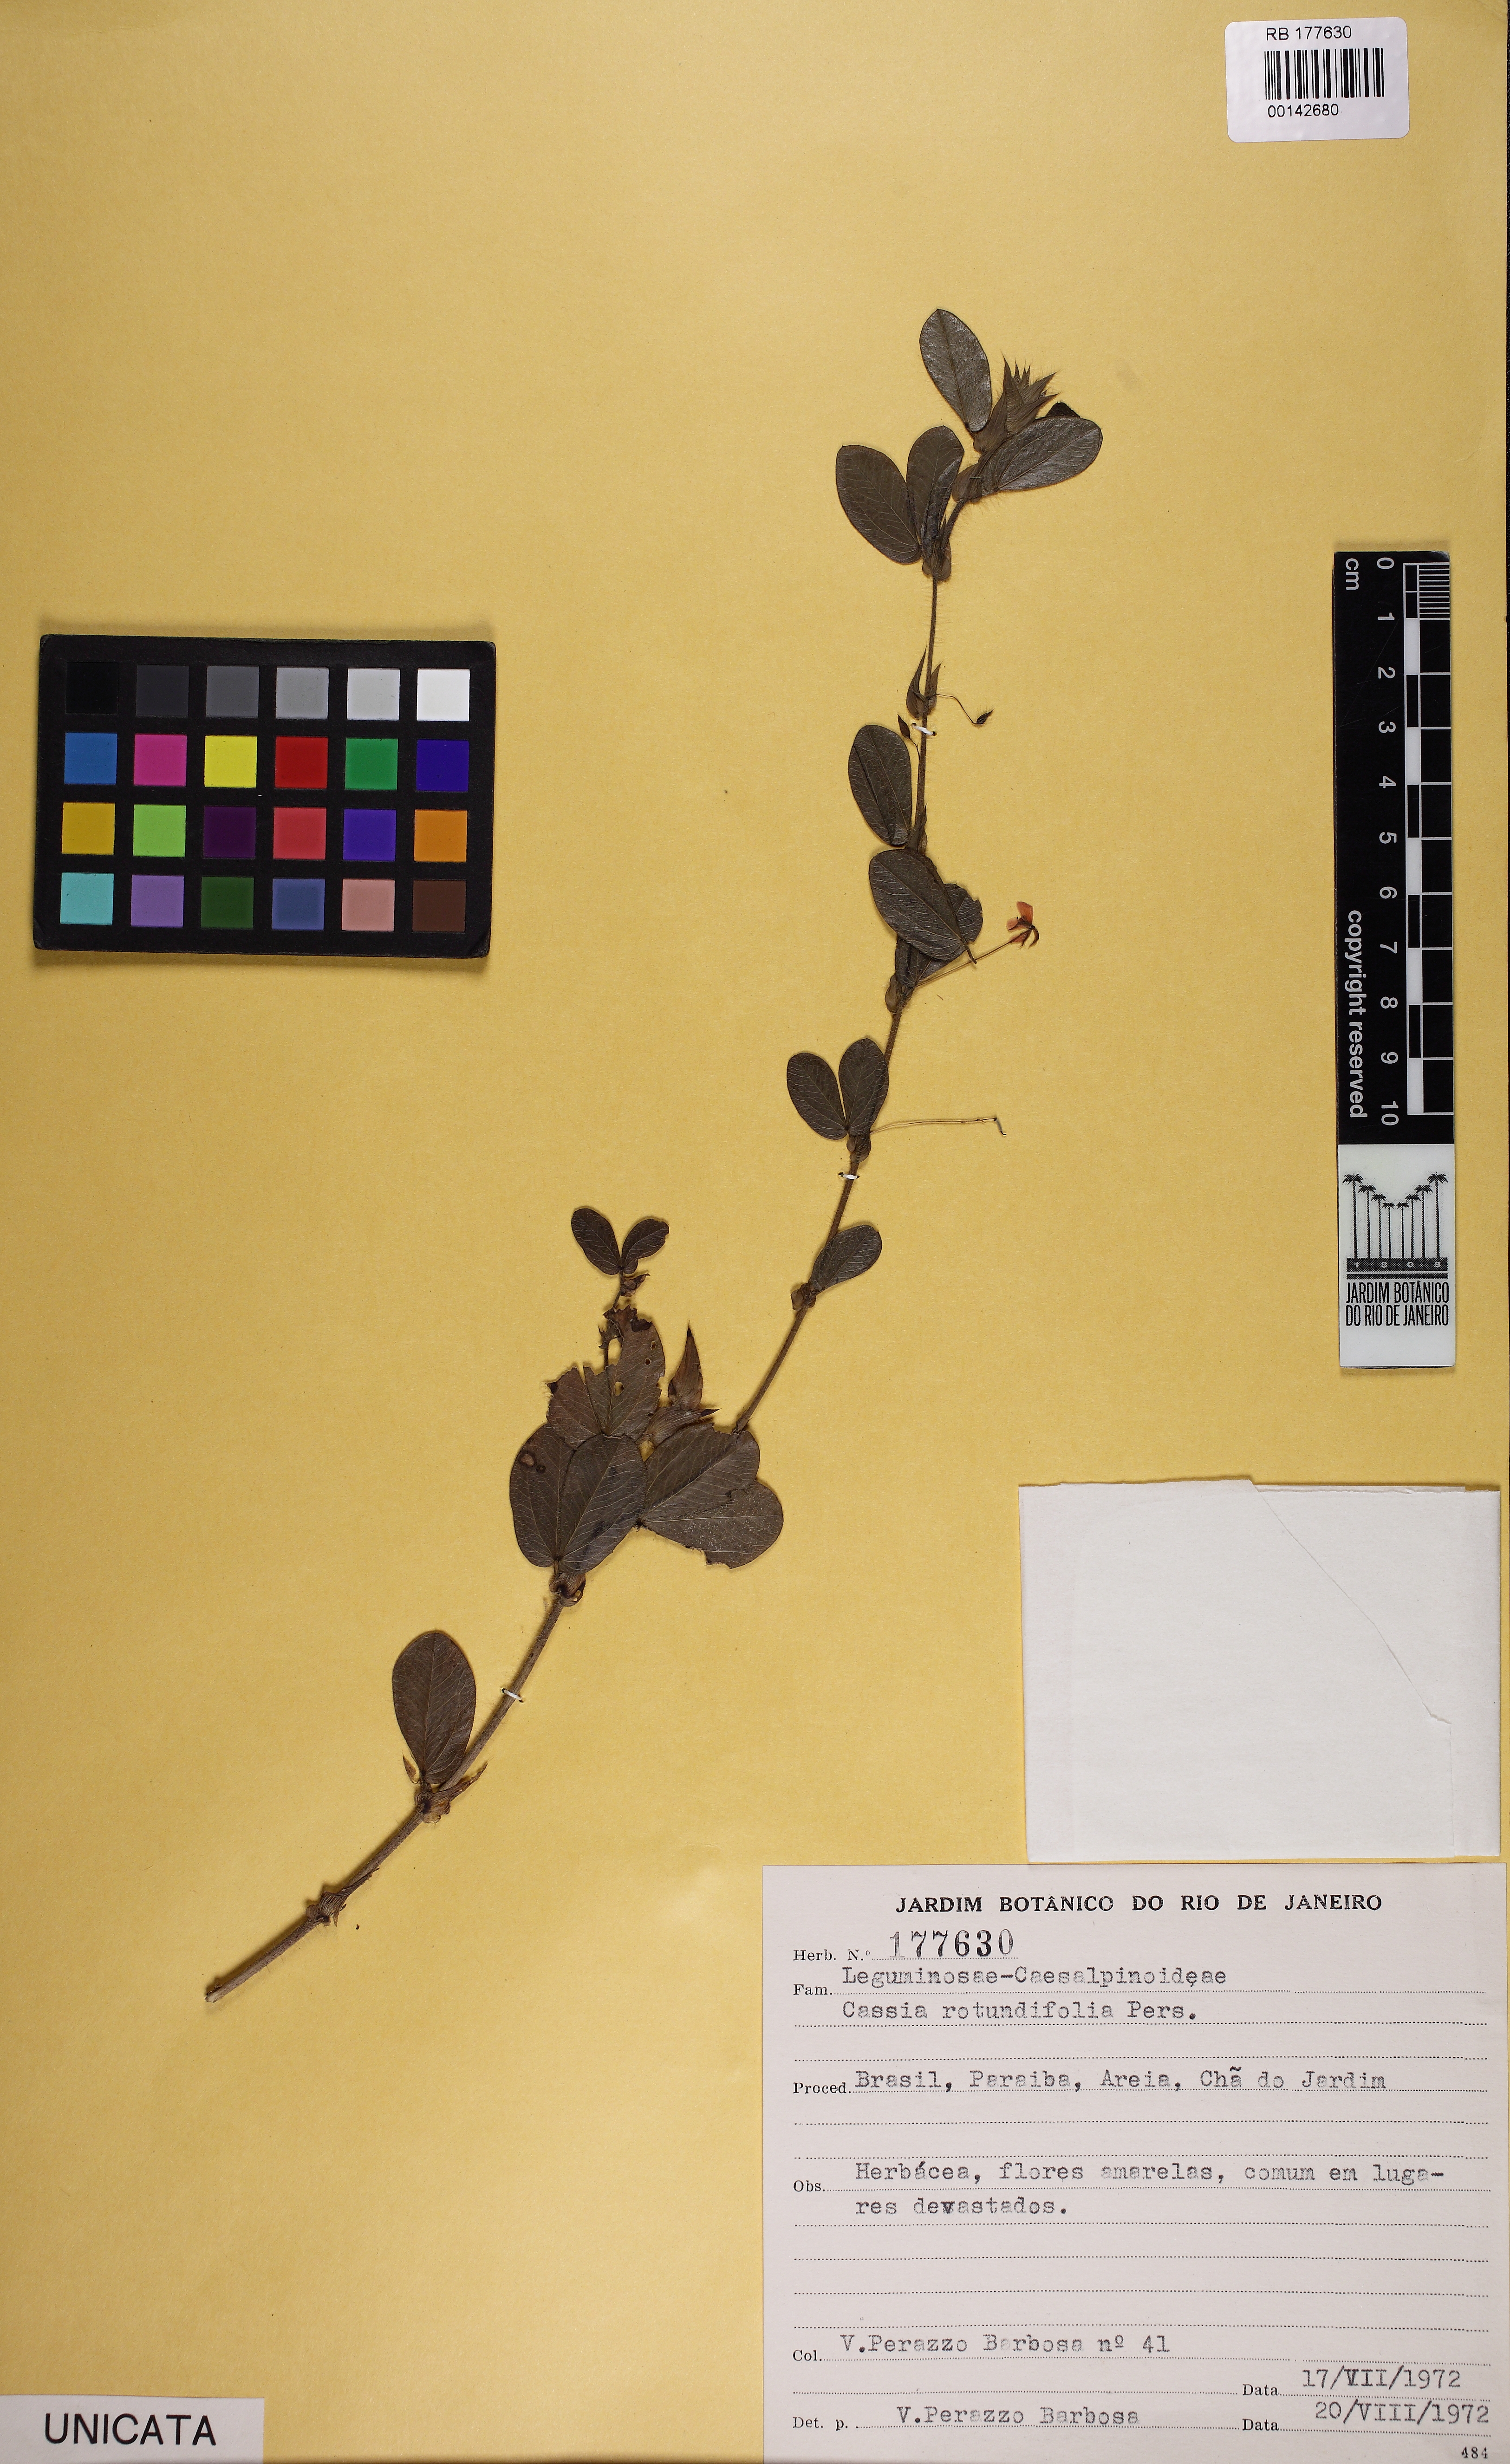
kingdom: Plantae
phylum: Tracheophyta
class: Magnoliopsida
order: Fabales
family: Fabaceae
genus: Chamaecrista
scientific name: Chamaecrista rotundifolia
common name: Round-leaf cassia
